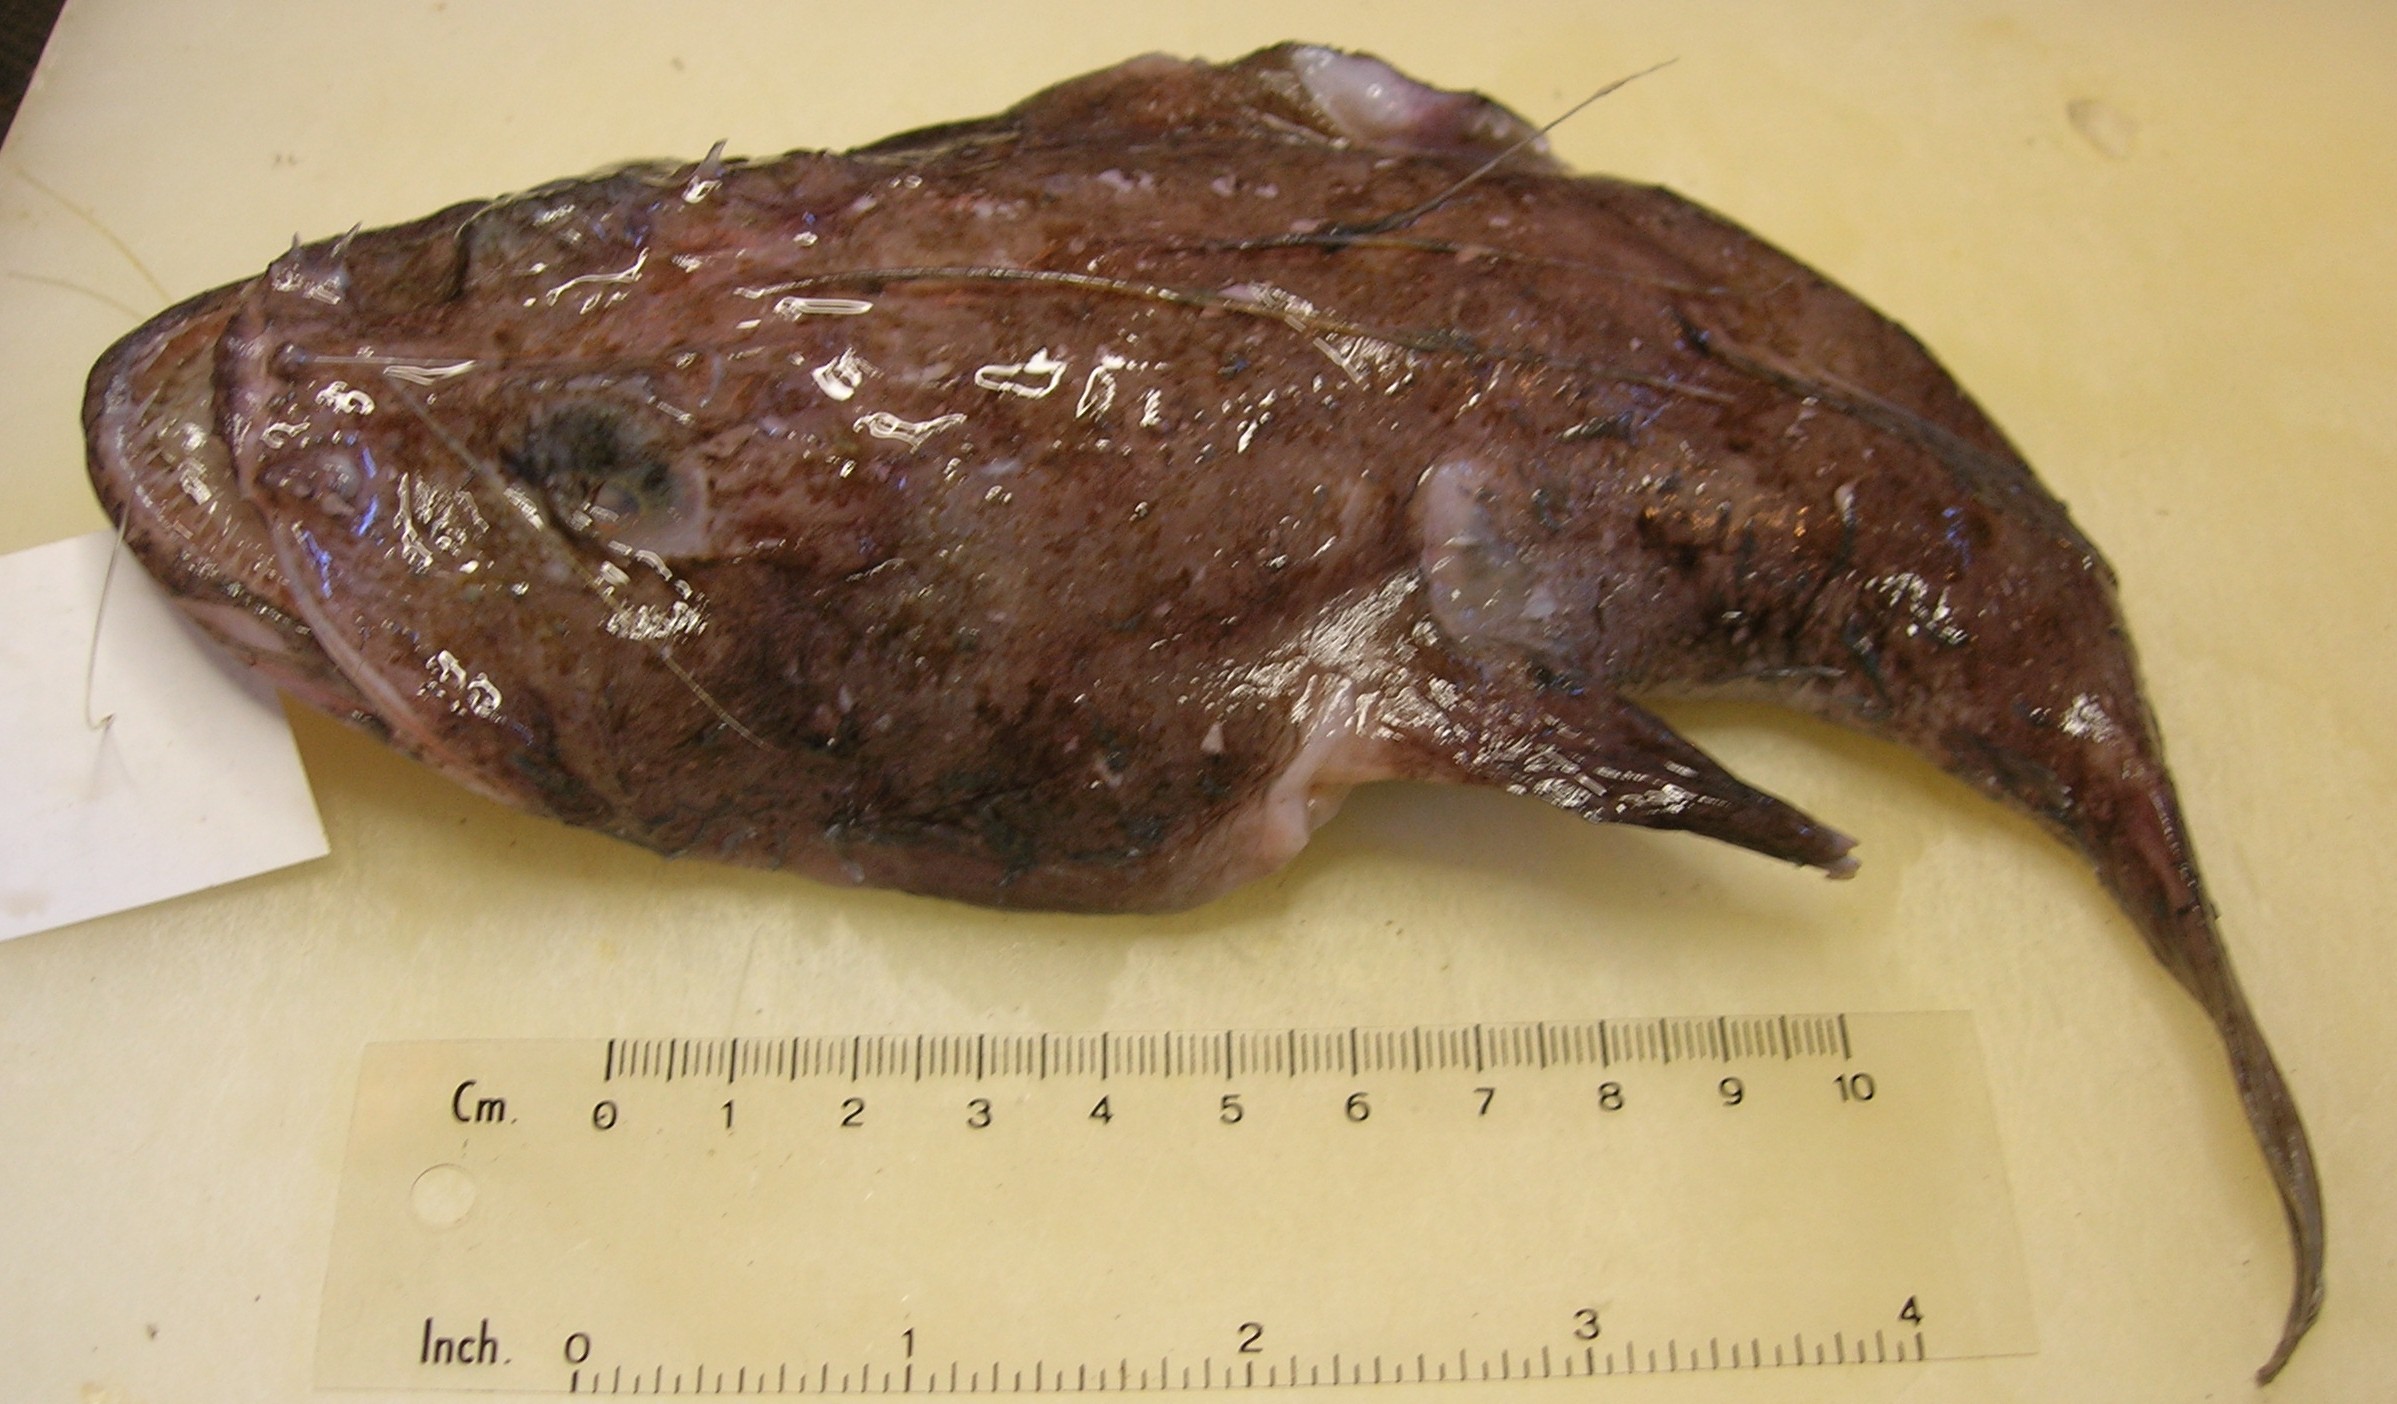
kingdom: Animalia
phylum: Chordata
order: Lophiiformes
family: Lophiidae
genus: Lophiodes
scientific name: Lophiodes insidiator
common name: Natal angler
